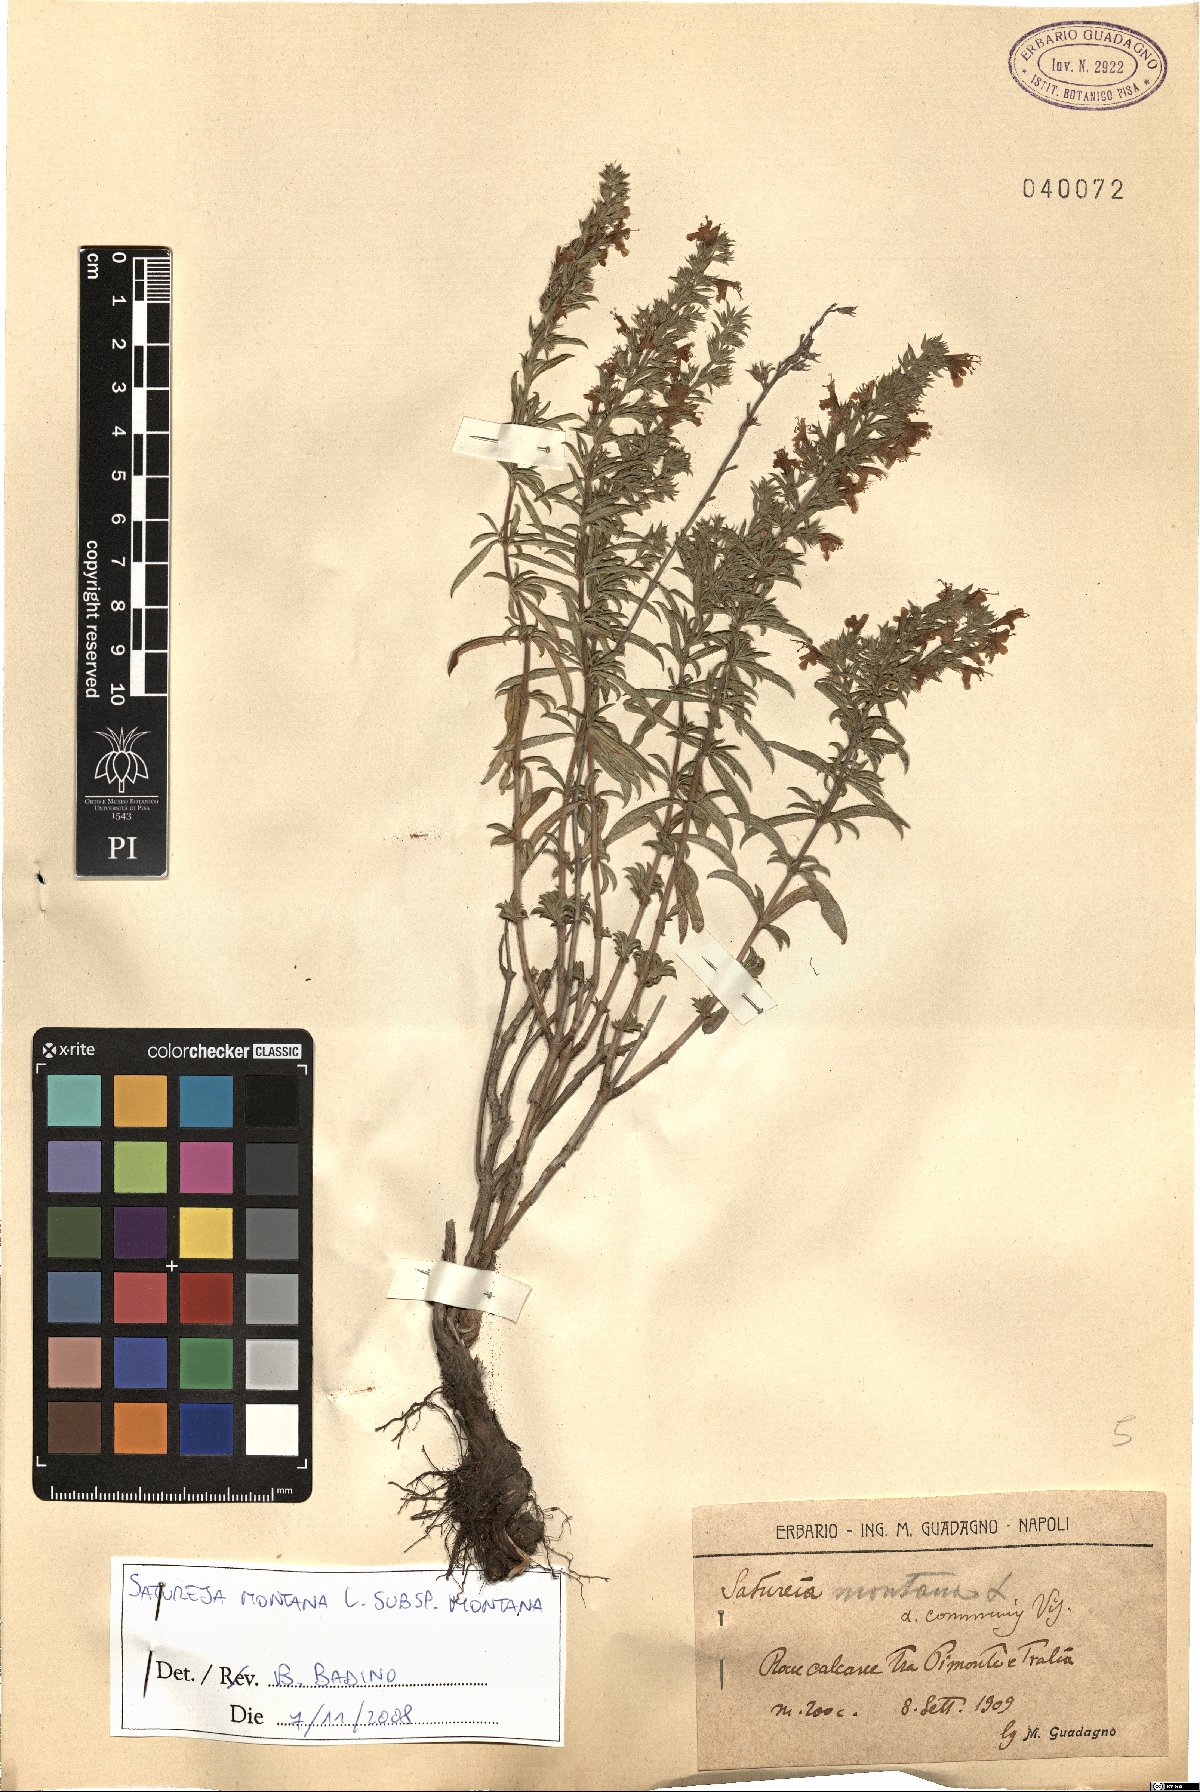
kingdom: Plantae
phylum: Tracheophyta
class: Magnoliopsida
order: Lamiales
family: Lamiaceae
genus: Satureja
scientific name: Satureja montana
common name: Winter savory
